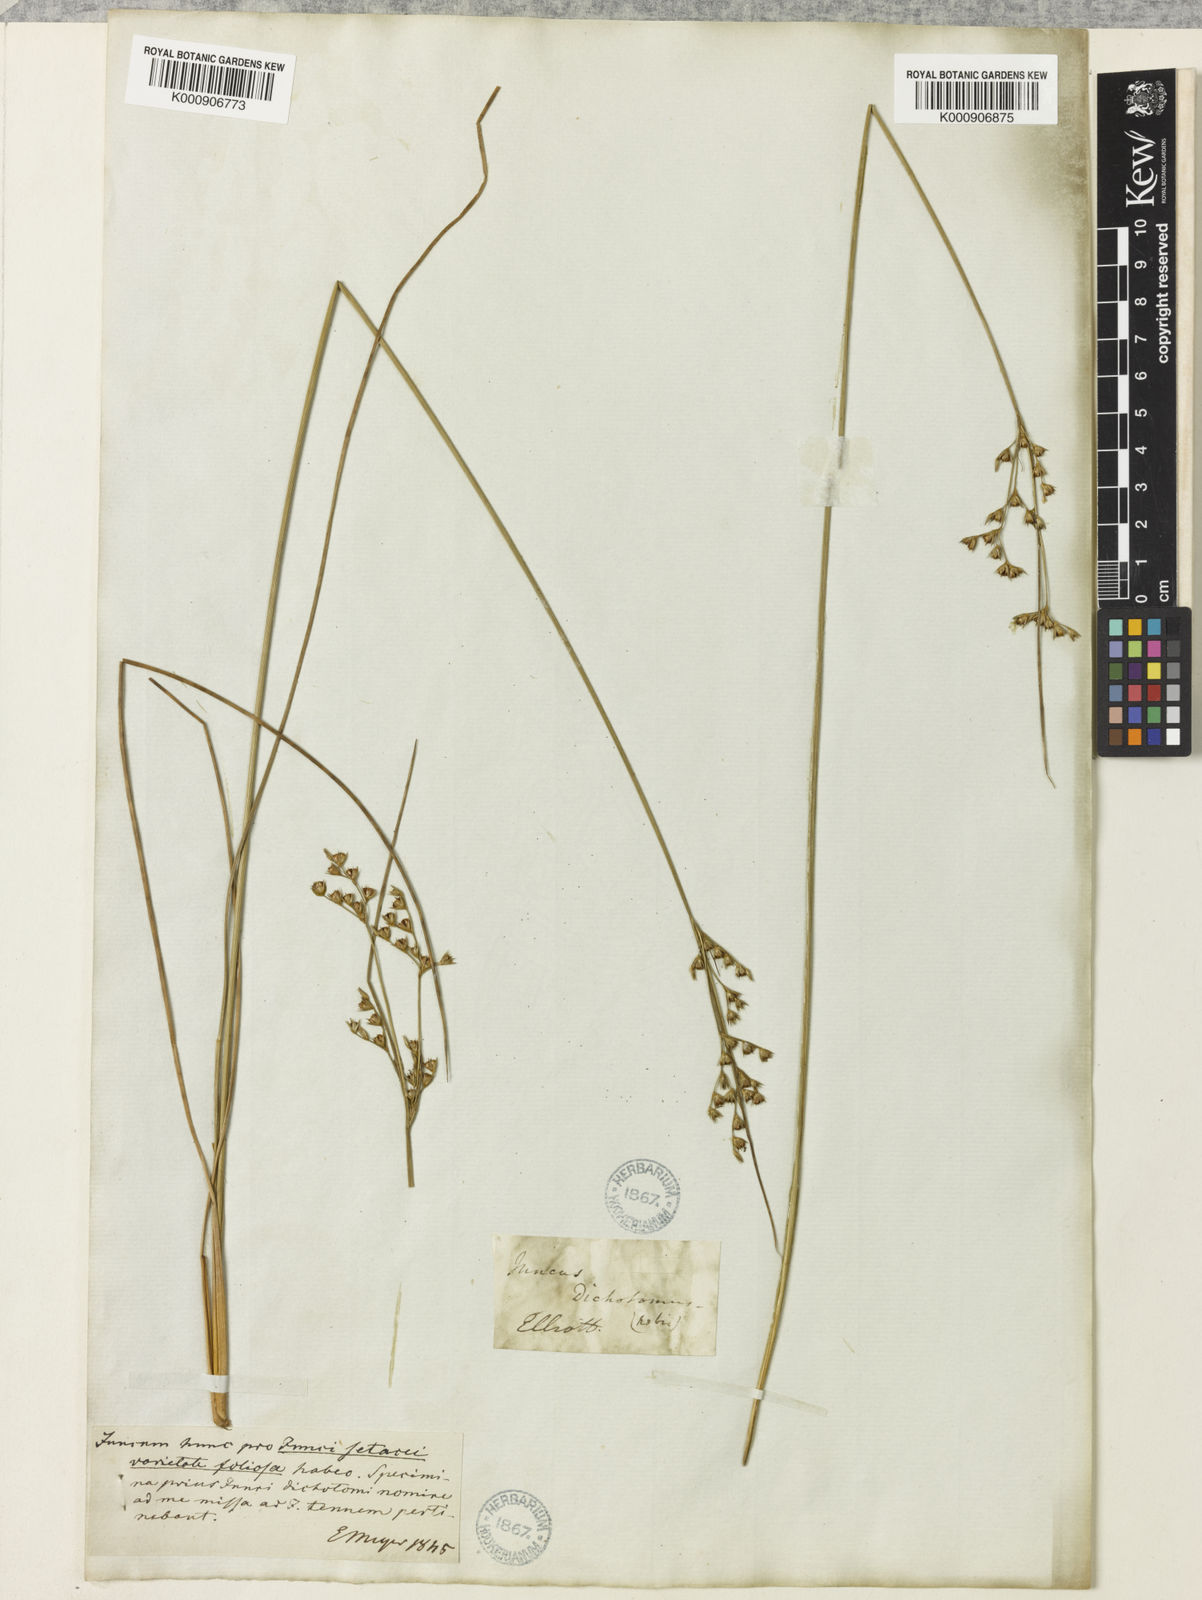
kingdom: Plantae
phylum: Tracheophyta
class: Liliopsida
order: Poales
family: Juncaceae
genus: Juncus
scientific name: Juncus dichotomus
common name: Forked rush
